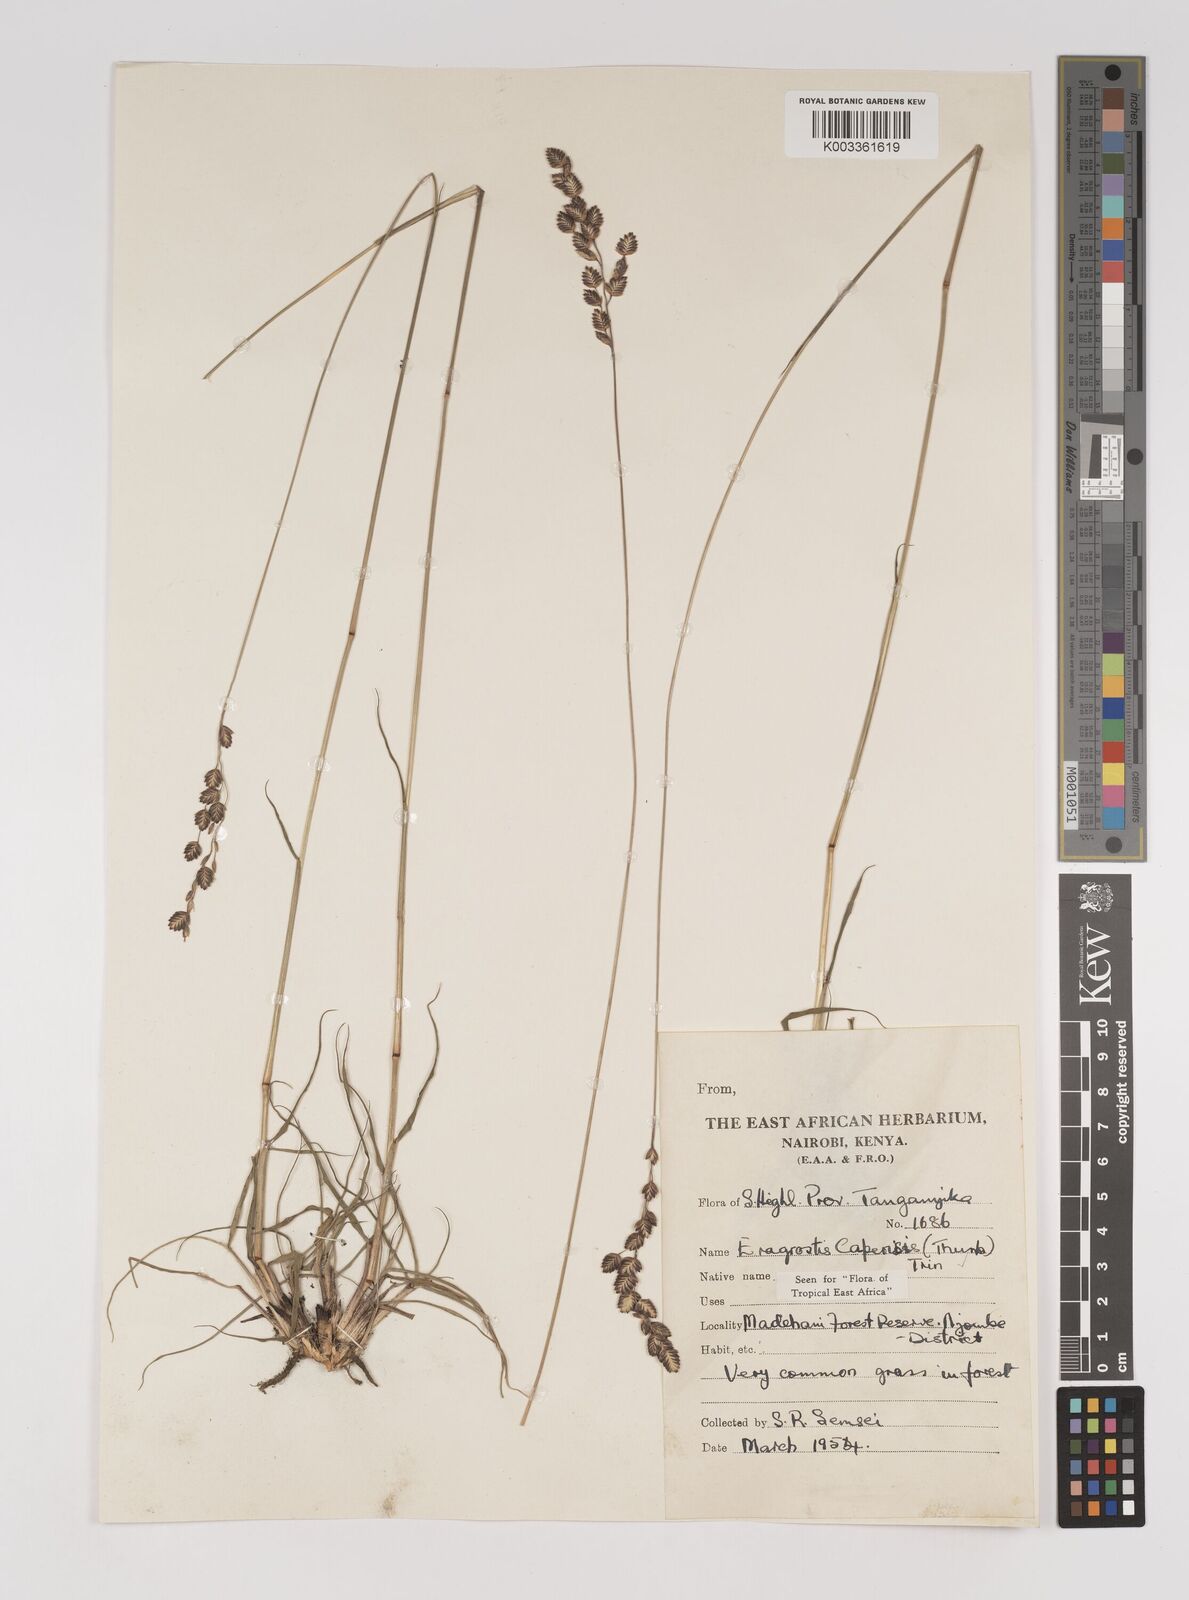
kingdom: Plantae
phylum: Tracheophyta
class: Liliopsida
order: Poales
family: Poaceae
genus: Eragrostis
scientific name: Eragrostis capensis
